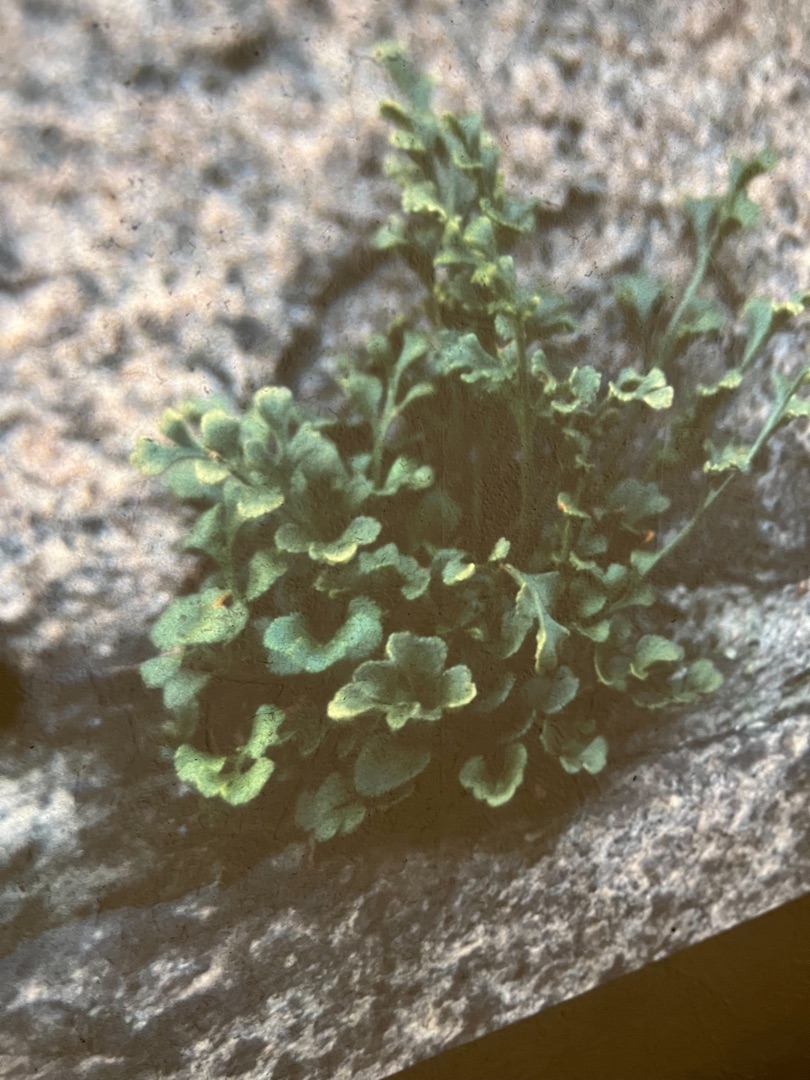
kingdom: Plantae
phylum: Tracheophyta
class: Polypodiopsida
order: Polypodiales
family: Aspleniaceae
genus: Asplenium
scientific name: Asplenium ruta-muraria
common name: Murrude
